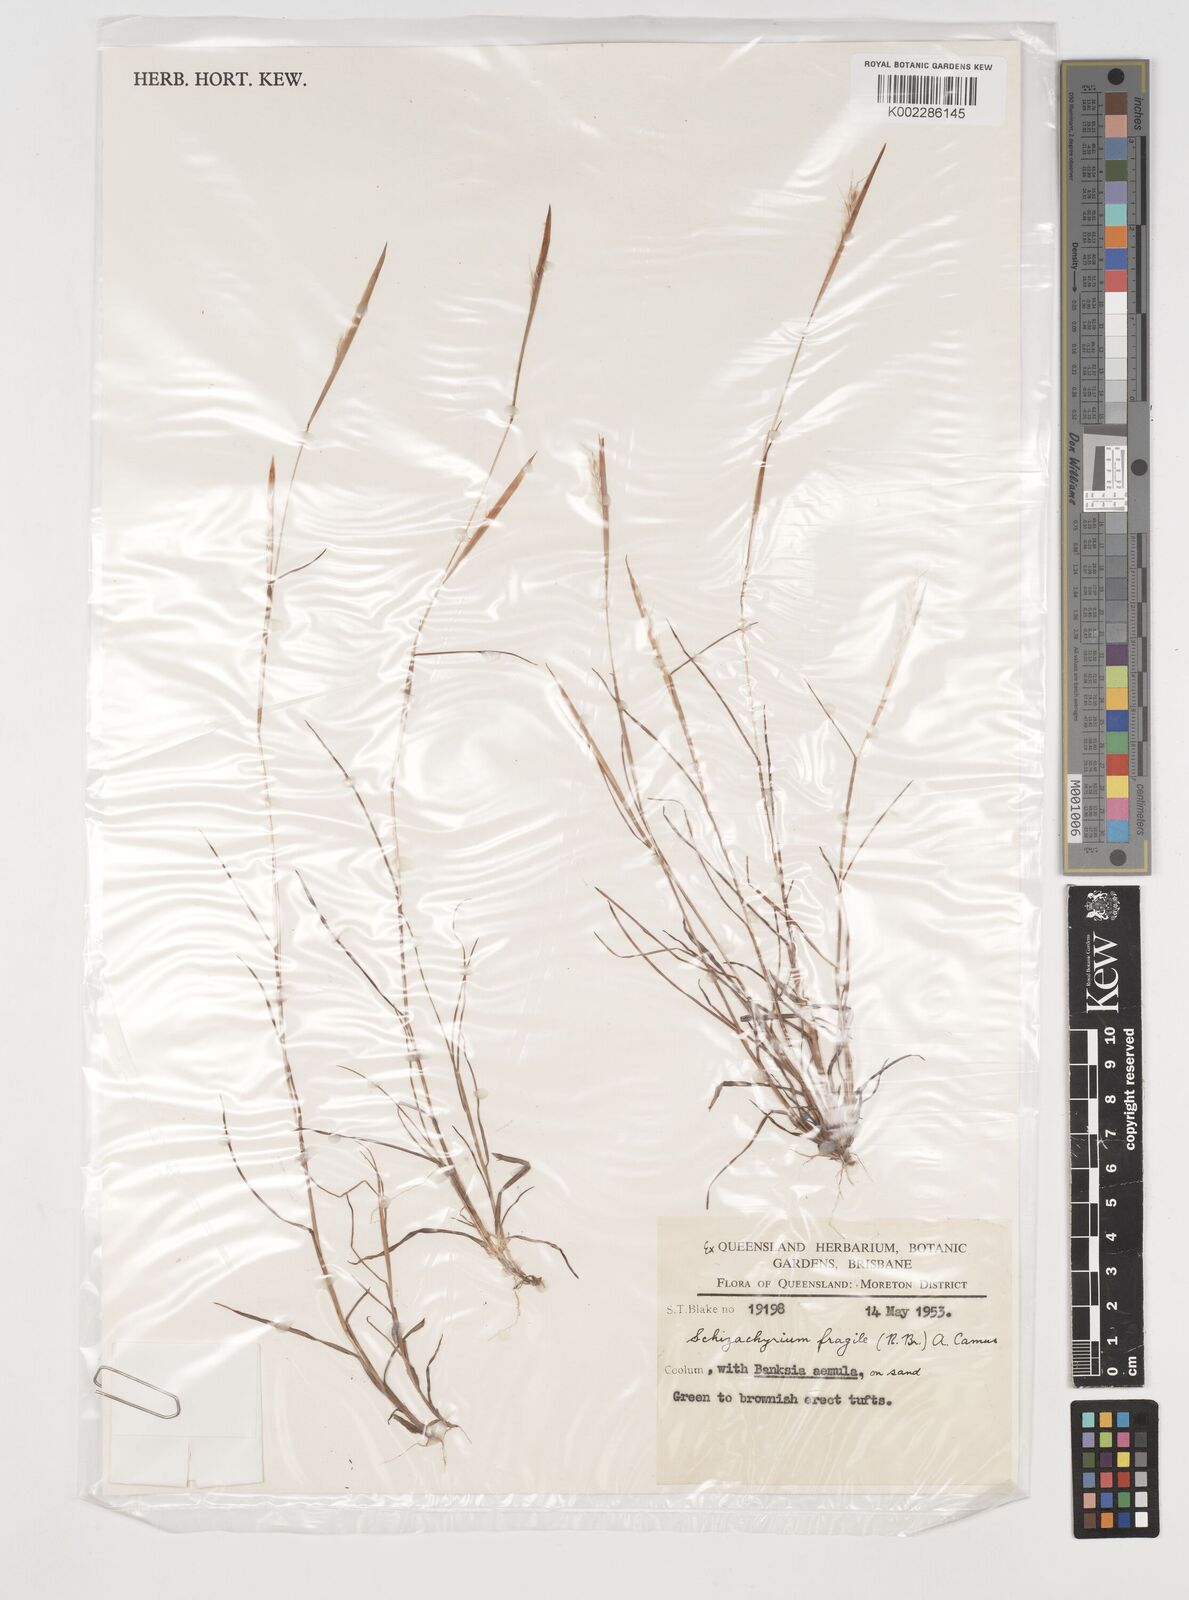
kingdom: Plantae
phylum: Tracheophyta
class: Liliopsida
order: Poales
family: Poaceae
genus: Schizachyrium
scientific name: Schizachyrium fragile
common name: Red spathe grass
